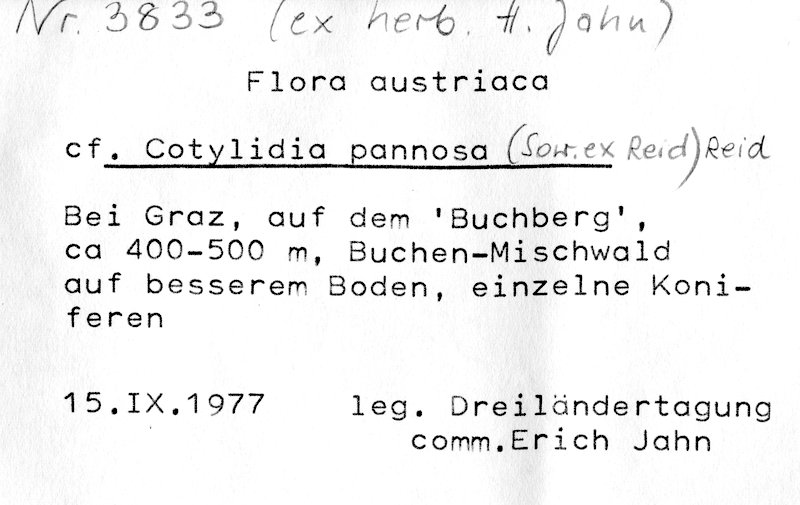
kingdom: Fungi
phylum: Basidiomycota
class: Agaricomycetes
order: Hymenochaetales
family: Rickenellaceae
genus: Cotylidia
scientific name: Cotylidia pannosa
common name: Woolly rosette
